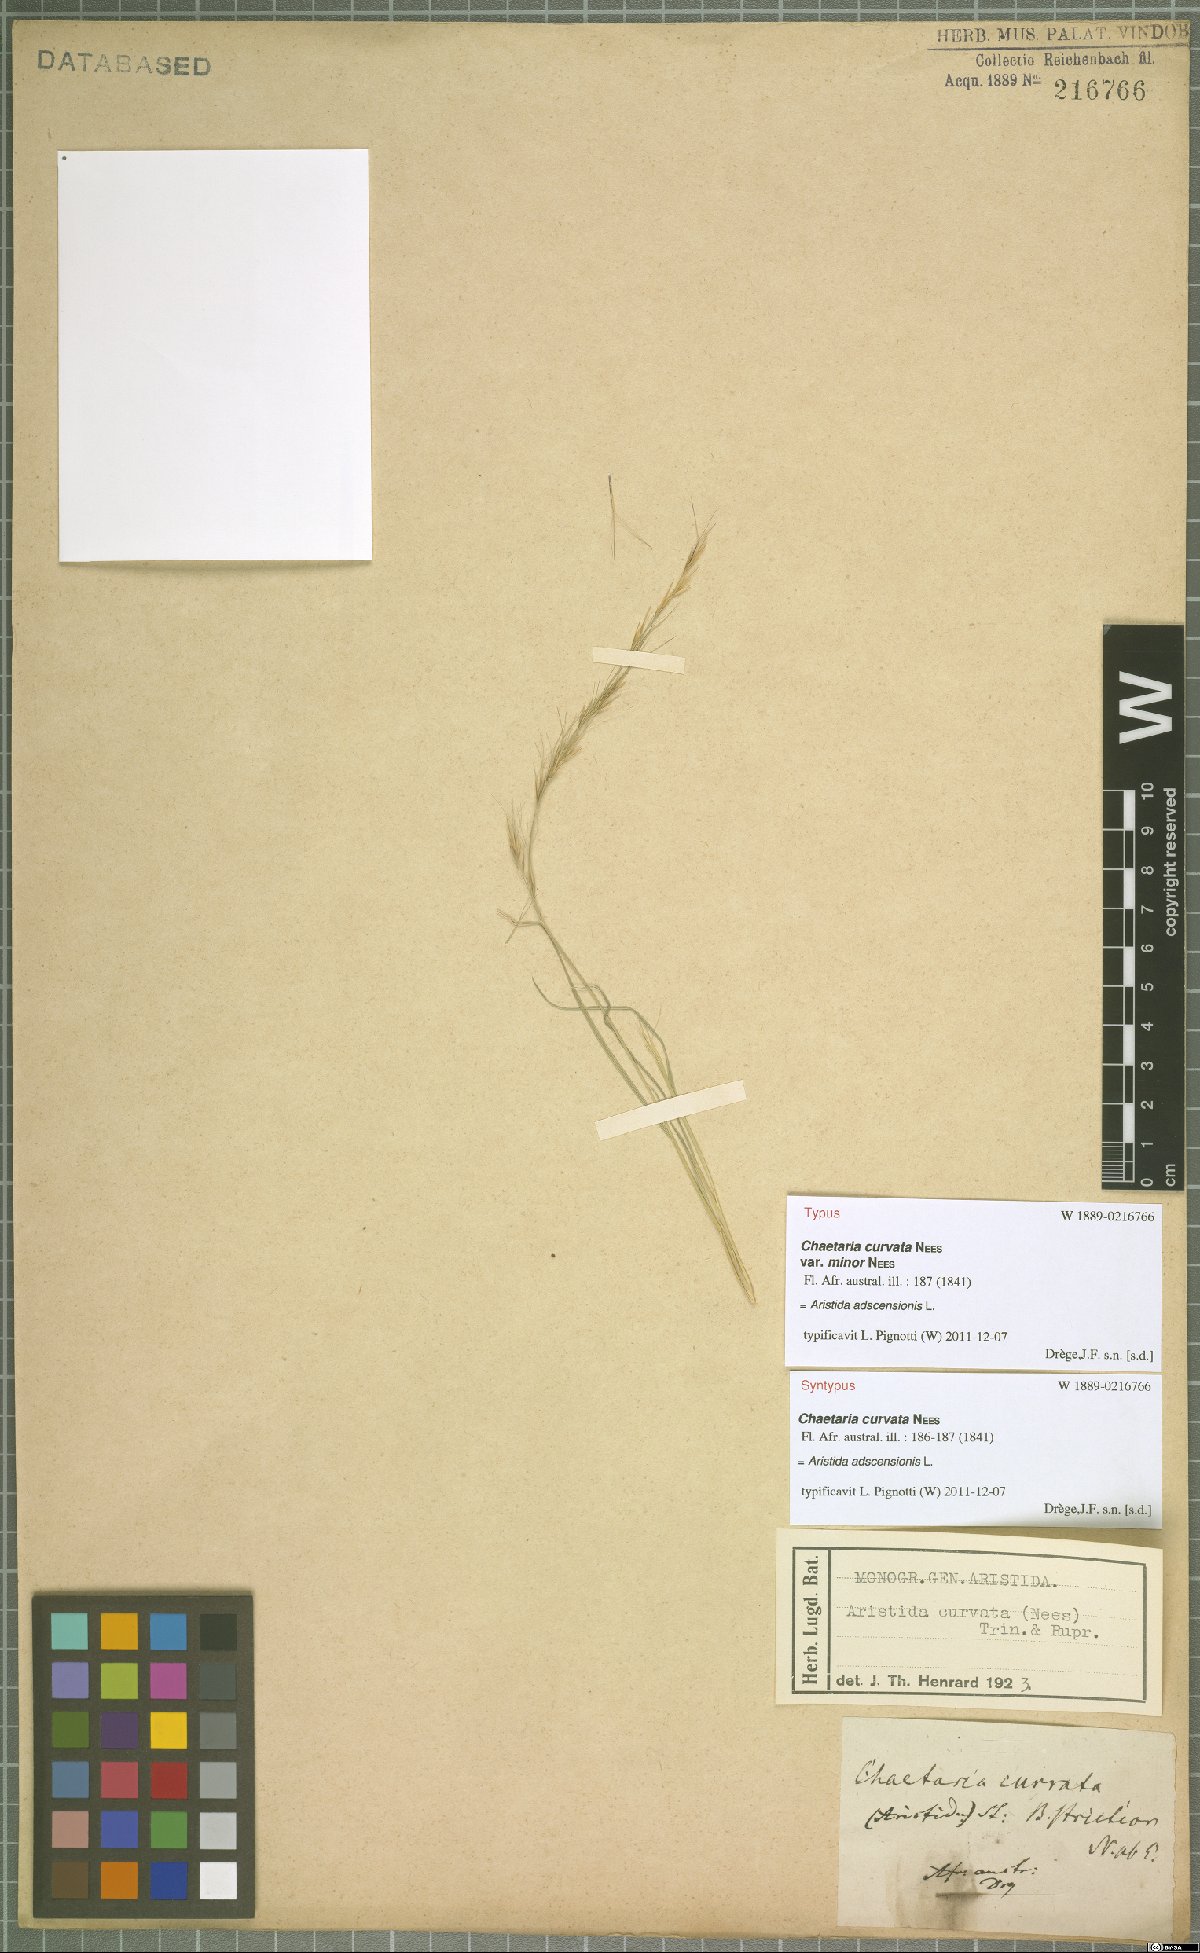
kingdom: Plantae
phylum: Tracheophyta
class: Liliopsida
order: Poales
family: Poaceae
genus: Aristida
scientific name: Aristida adscensionis
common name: Sixweeks threeawn
